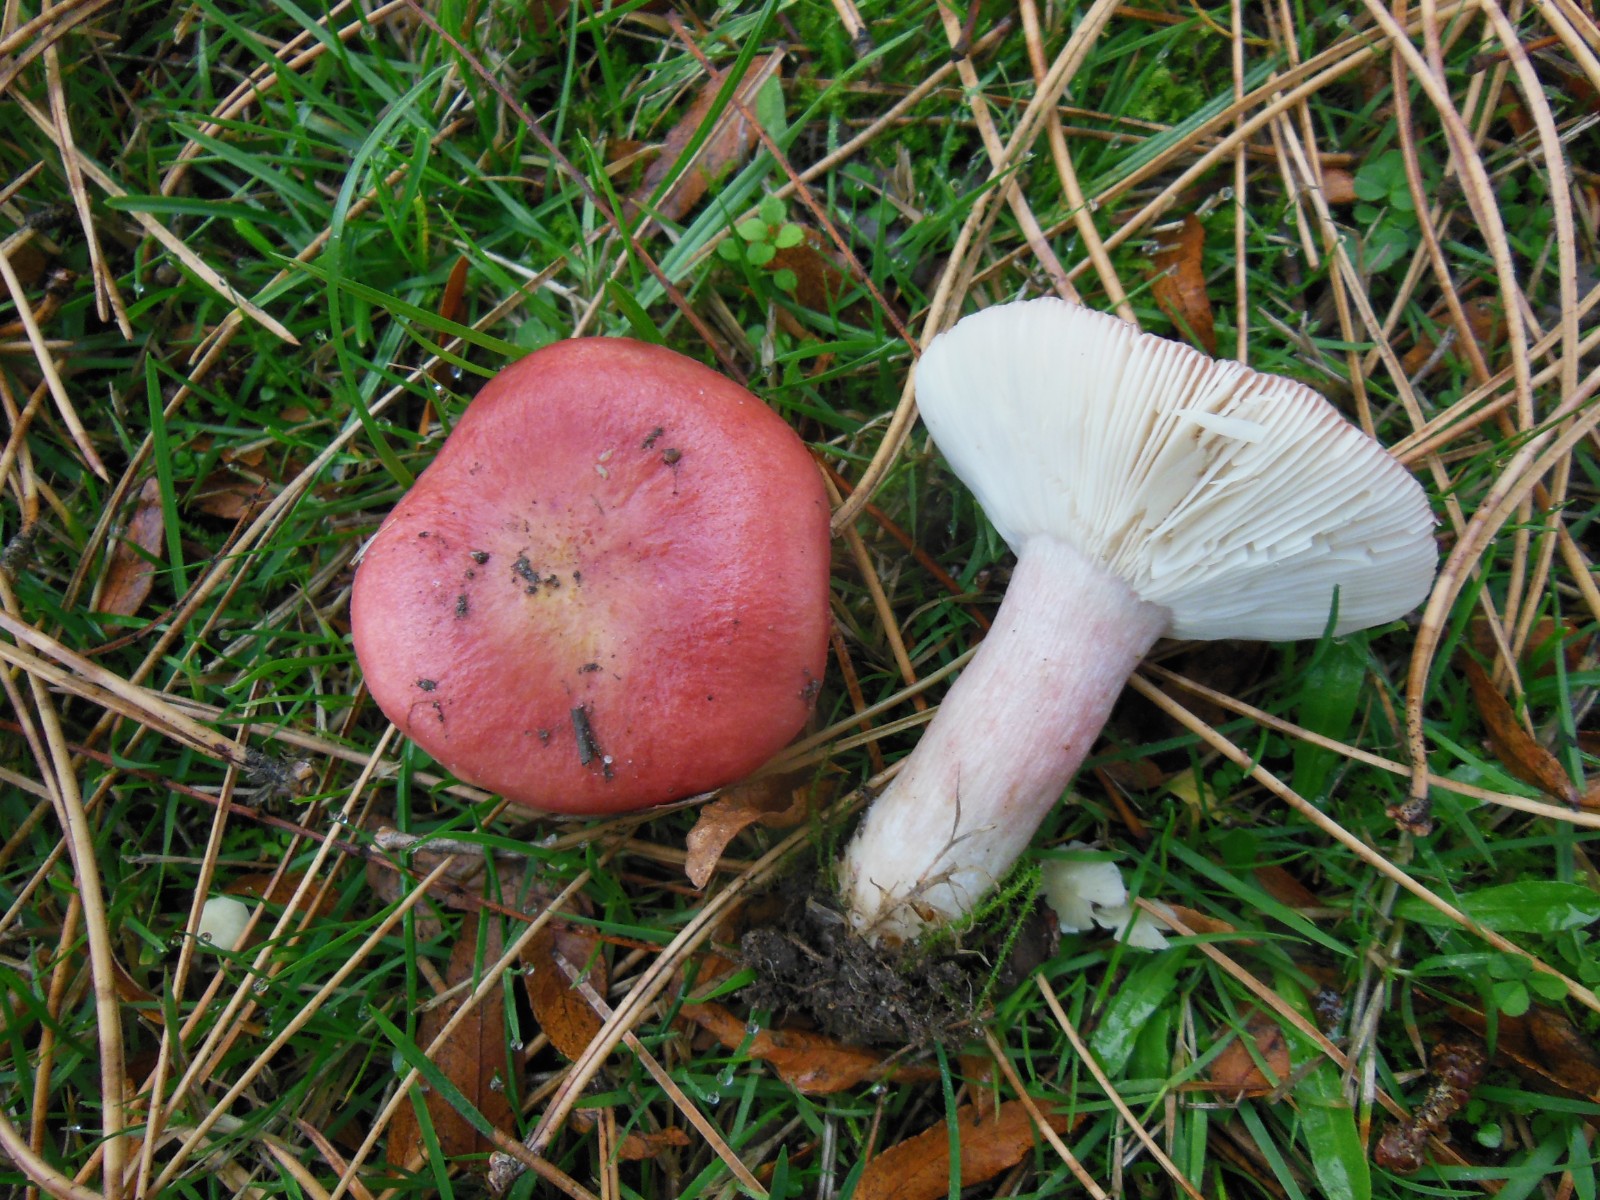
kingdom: Fungi
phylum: Basidiomycota
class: Agaricomycetes
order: Russulales
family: Russulaceae
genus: Russula
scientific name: Russula sanguinea
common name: blodrød skørhat
